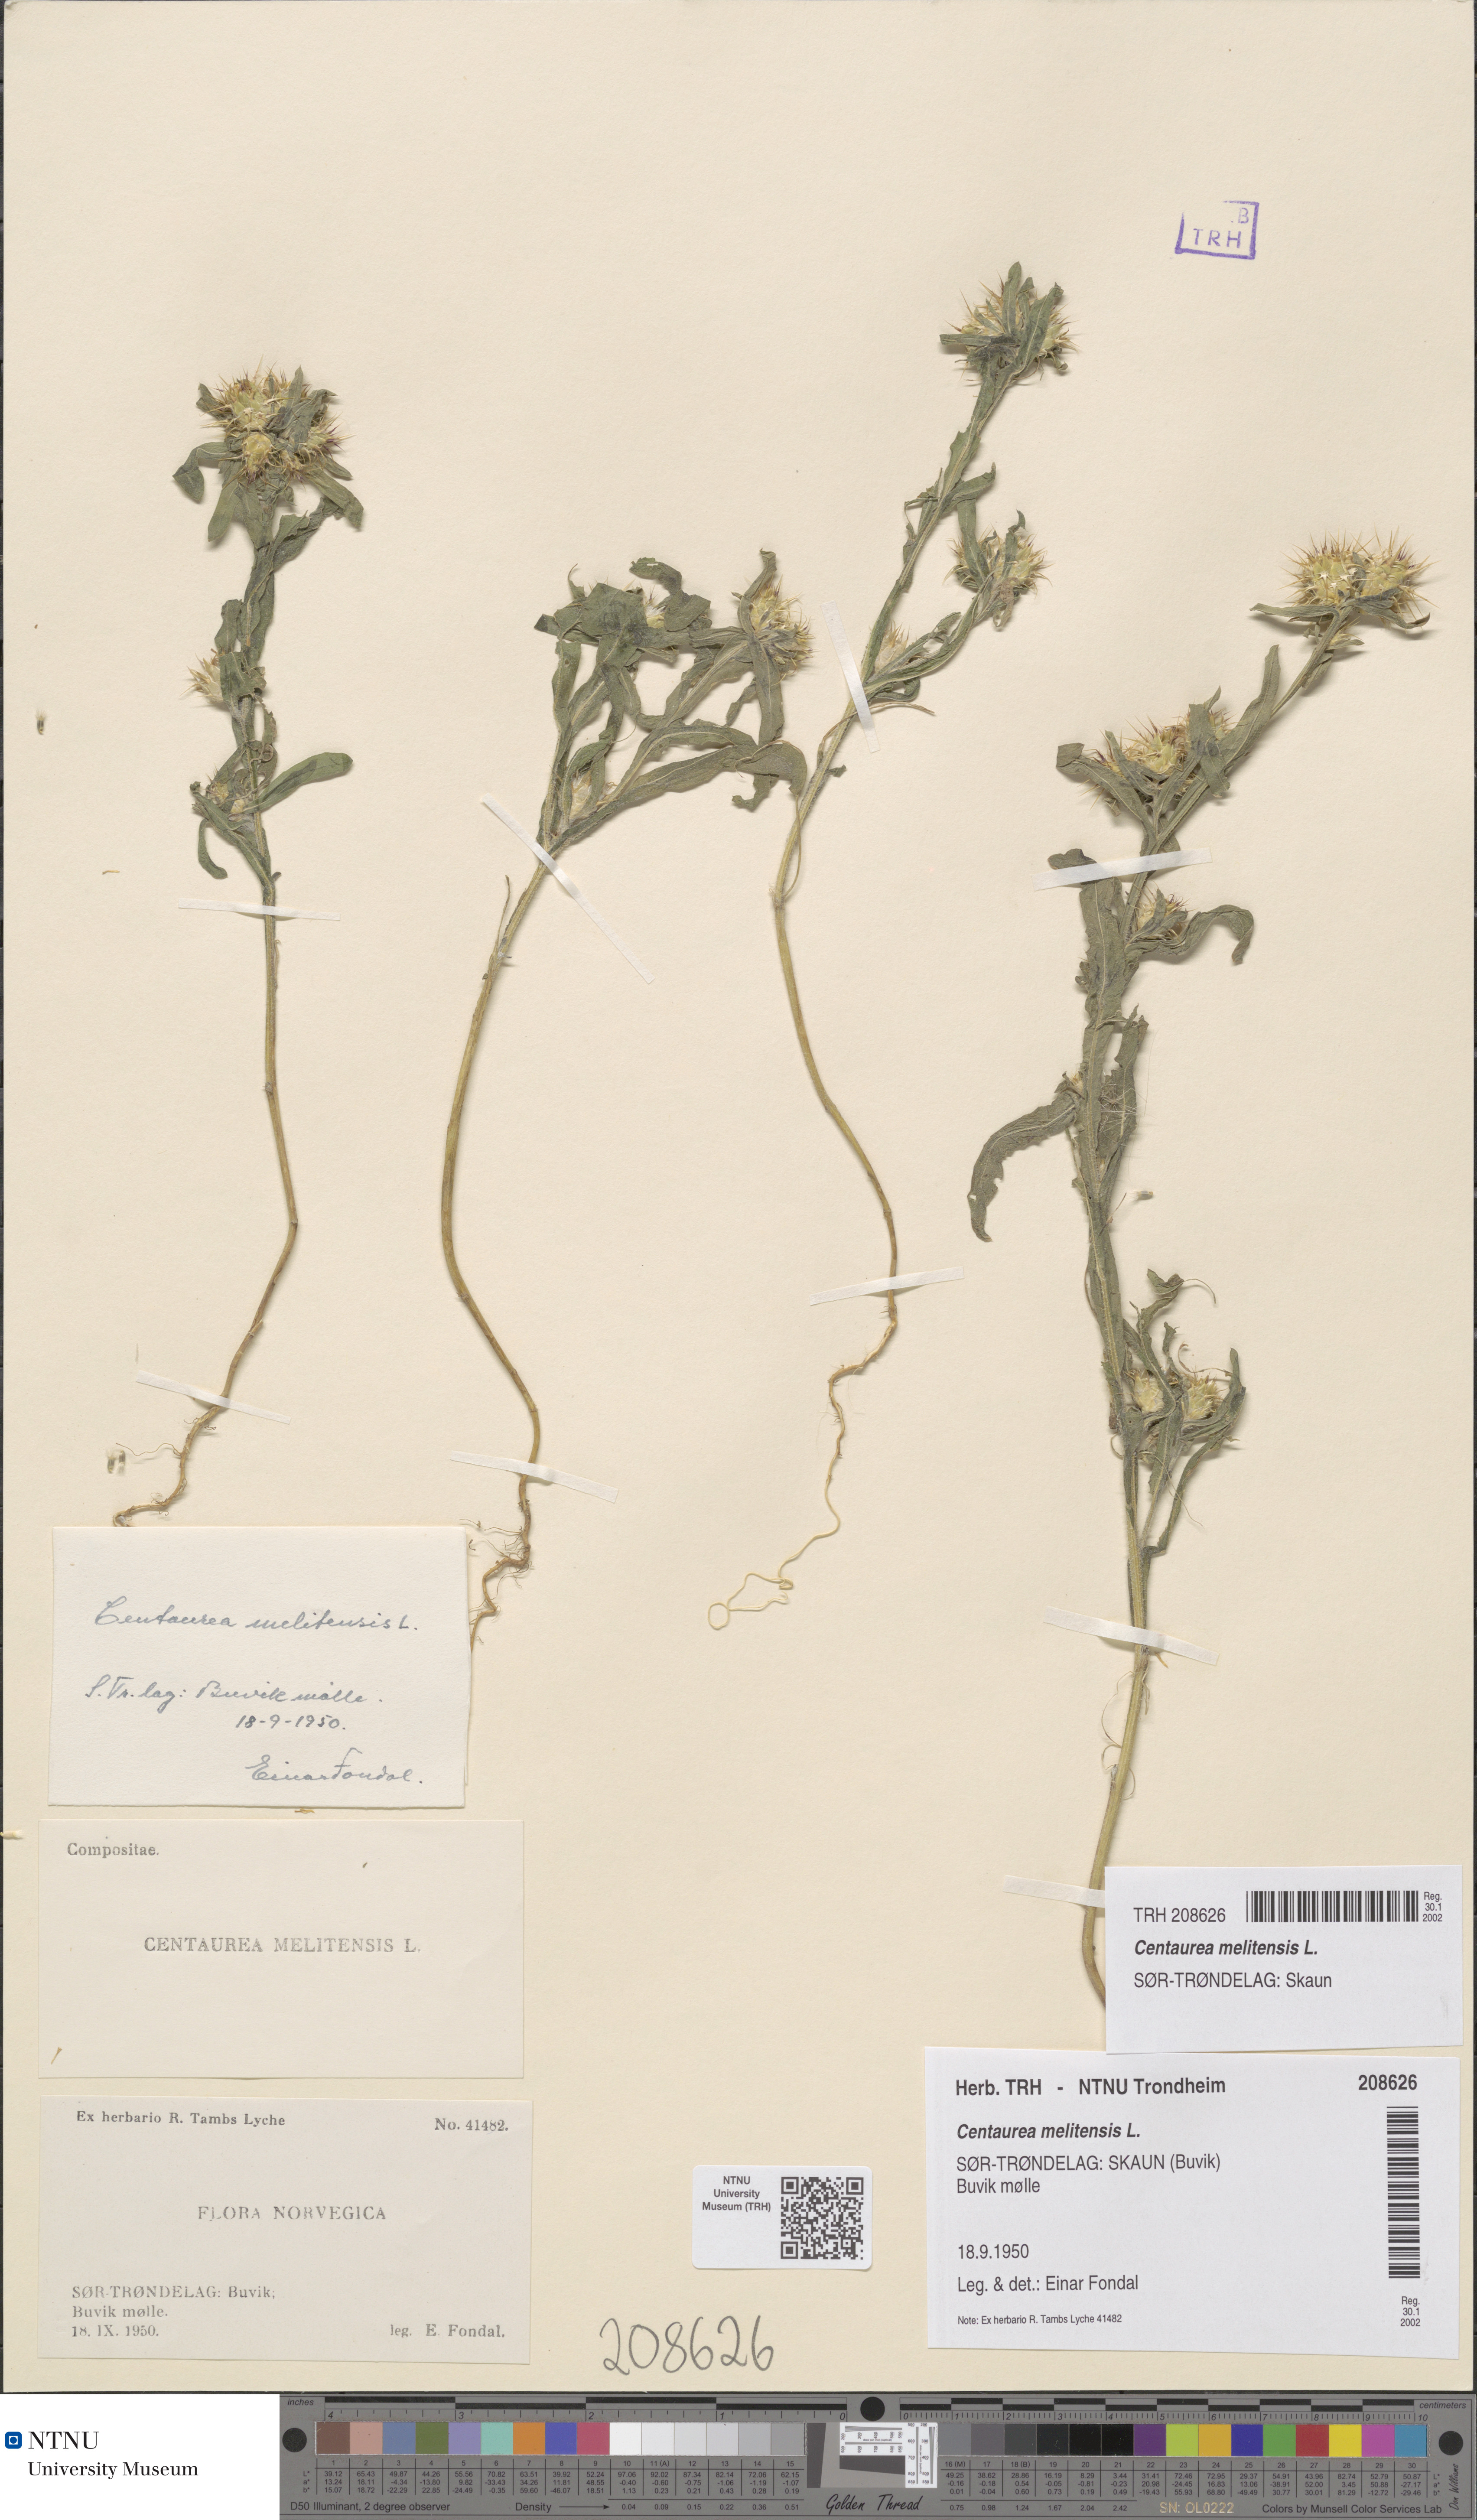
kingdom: Plantae
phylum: Tracheophyta
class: Magnoliopsida
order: Asterales
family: Asteraceae
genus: Centaurea
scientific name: Centaurea melitensis
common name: Maltese star-thistle
